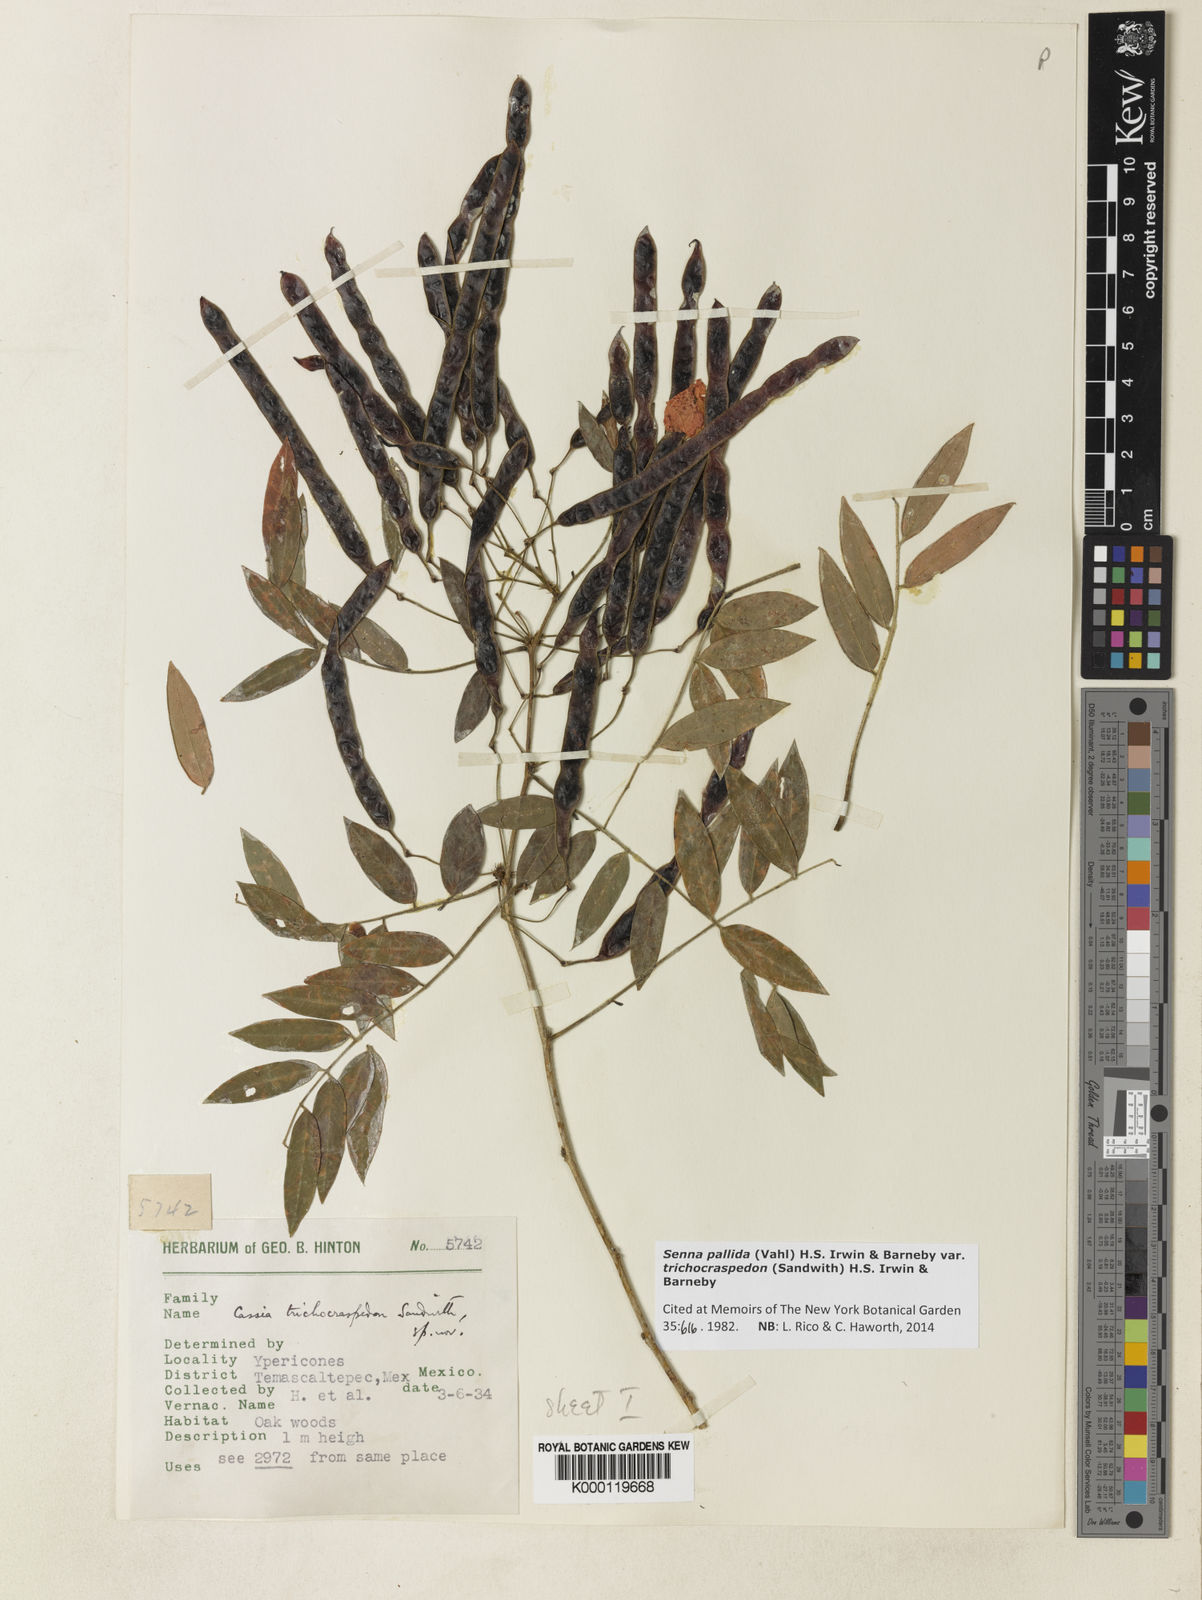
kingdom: Plantae
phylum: Tracheophyta
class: Magnoliopsida
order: Fabales
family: Fabaceae
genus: Senna
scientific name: Senna pallida
